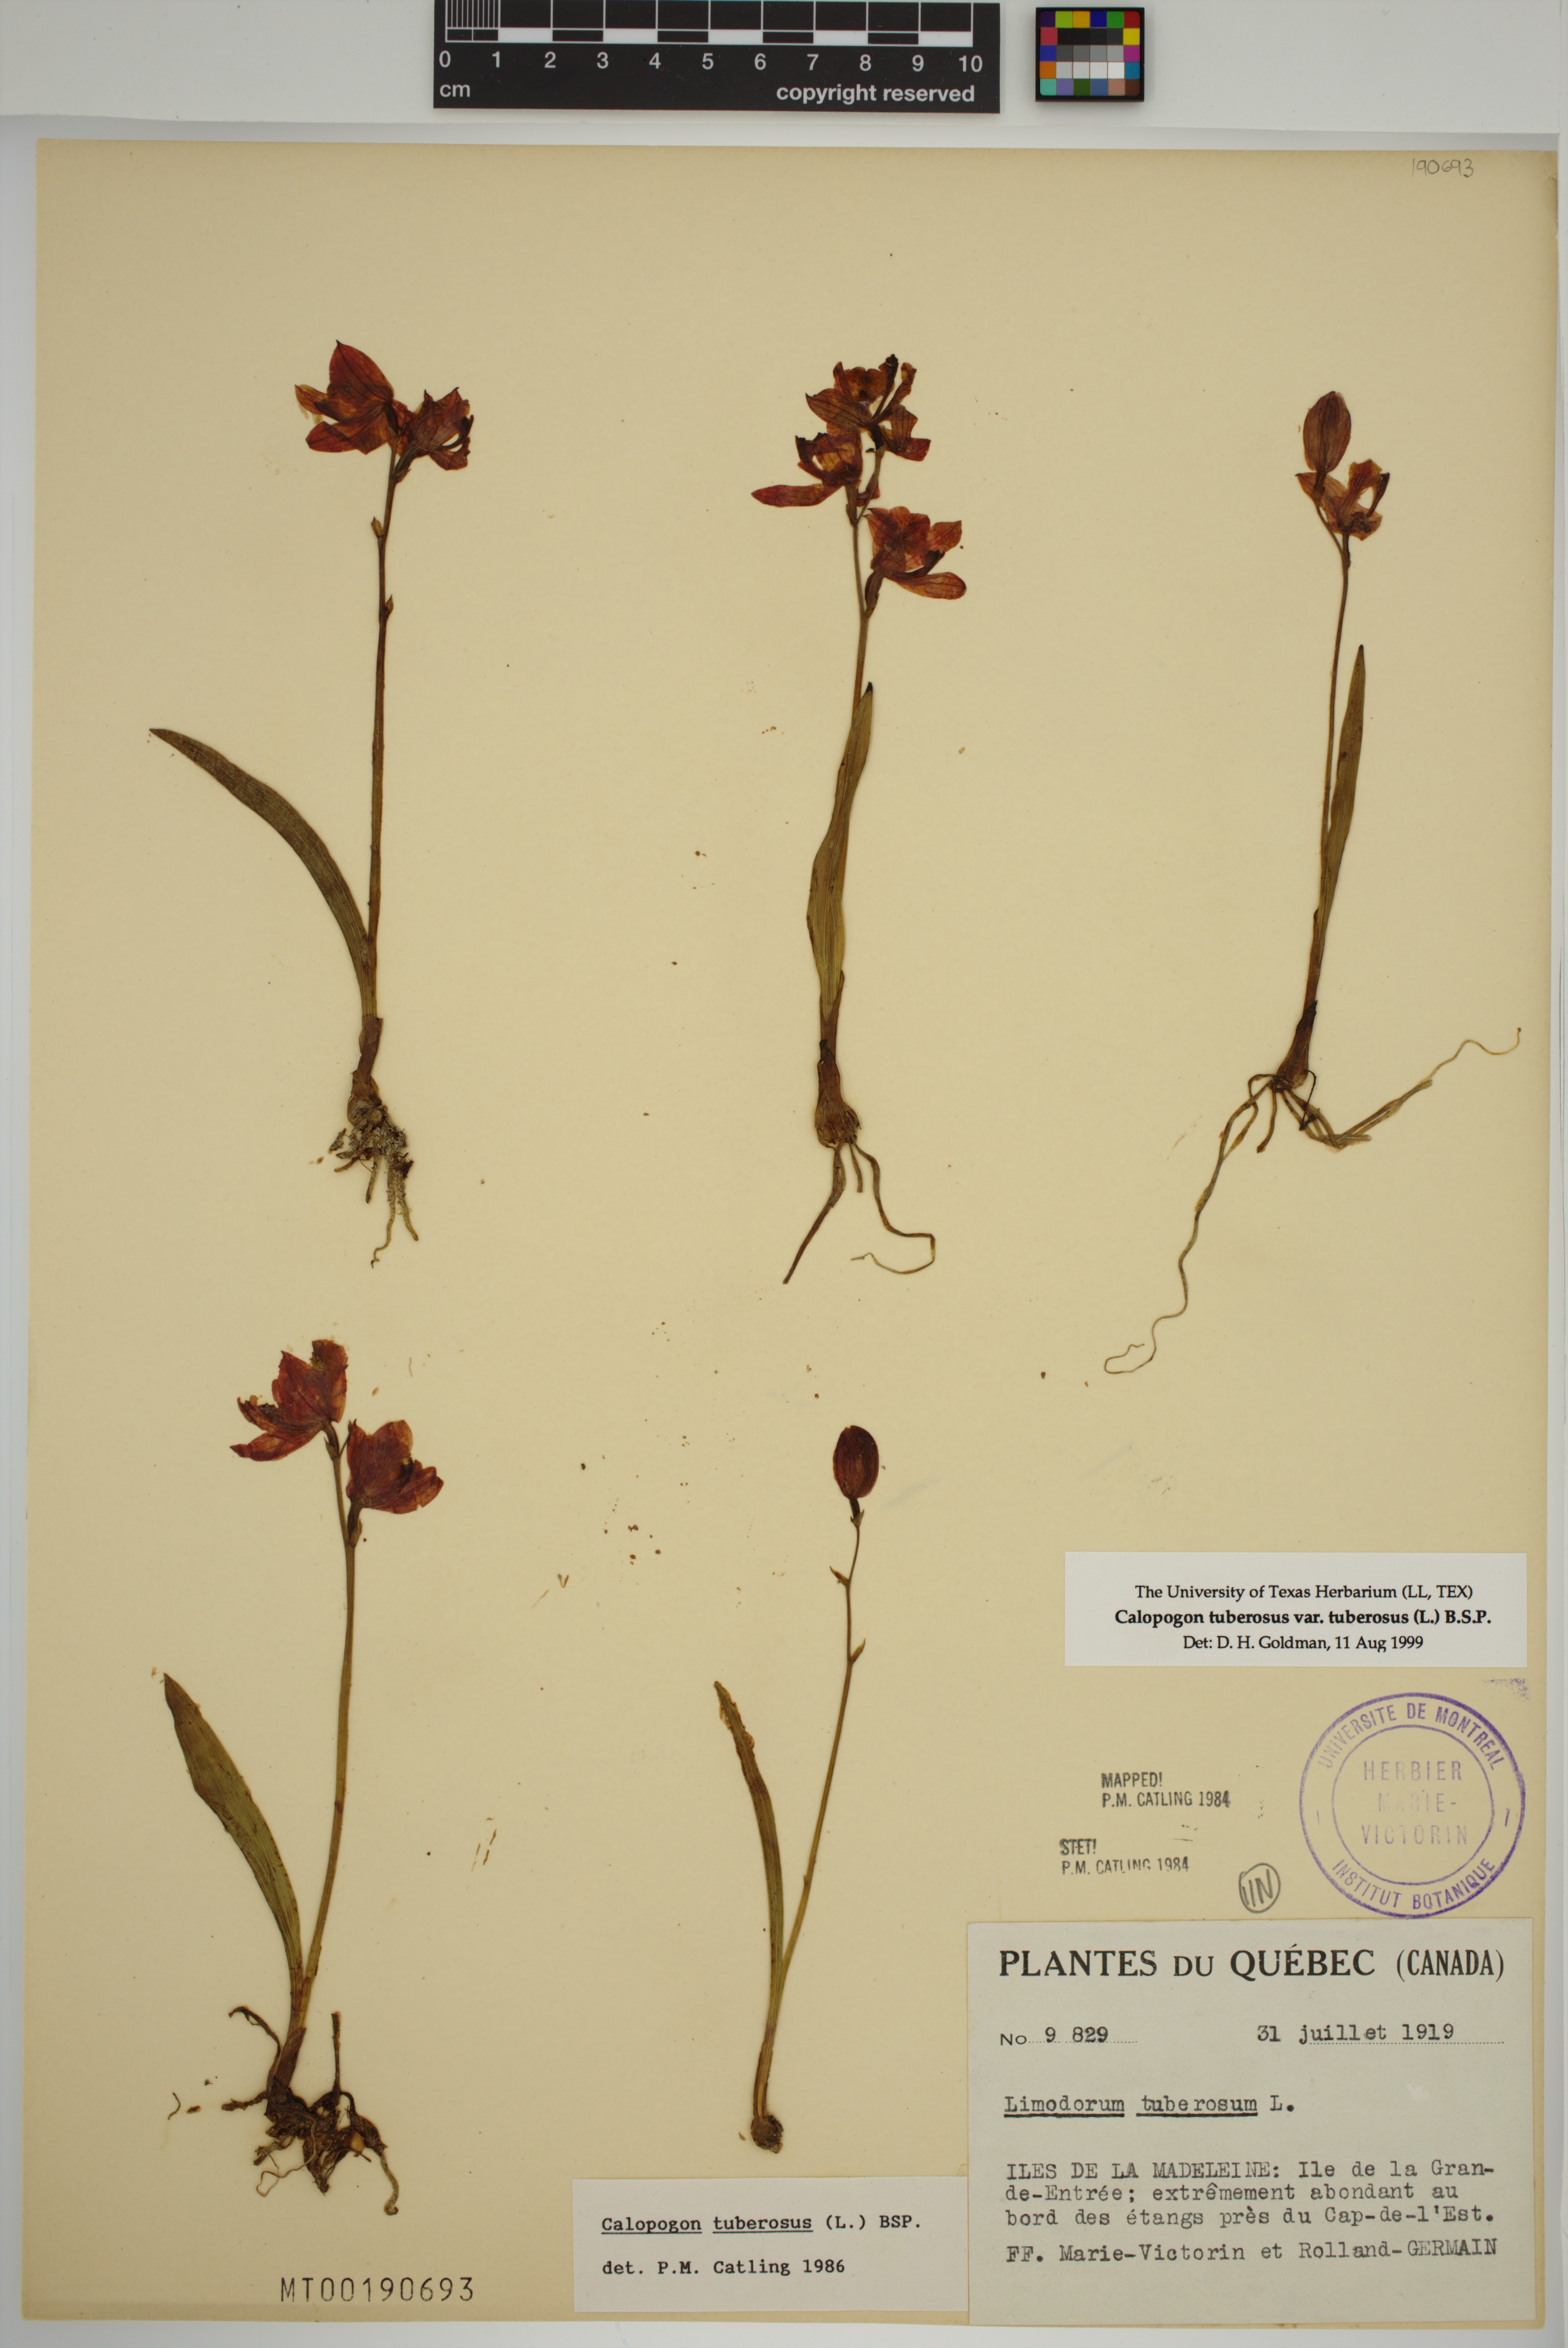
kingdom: Plantae
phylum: Tracheophyta
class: Liliopsida
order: Asparagales
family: Orchidaceae
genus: Calopogon
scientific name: Calopogon tuberosus
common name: Grass-pink
